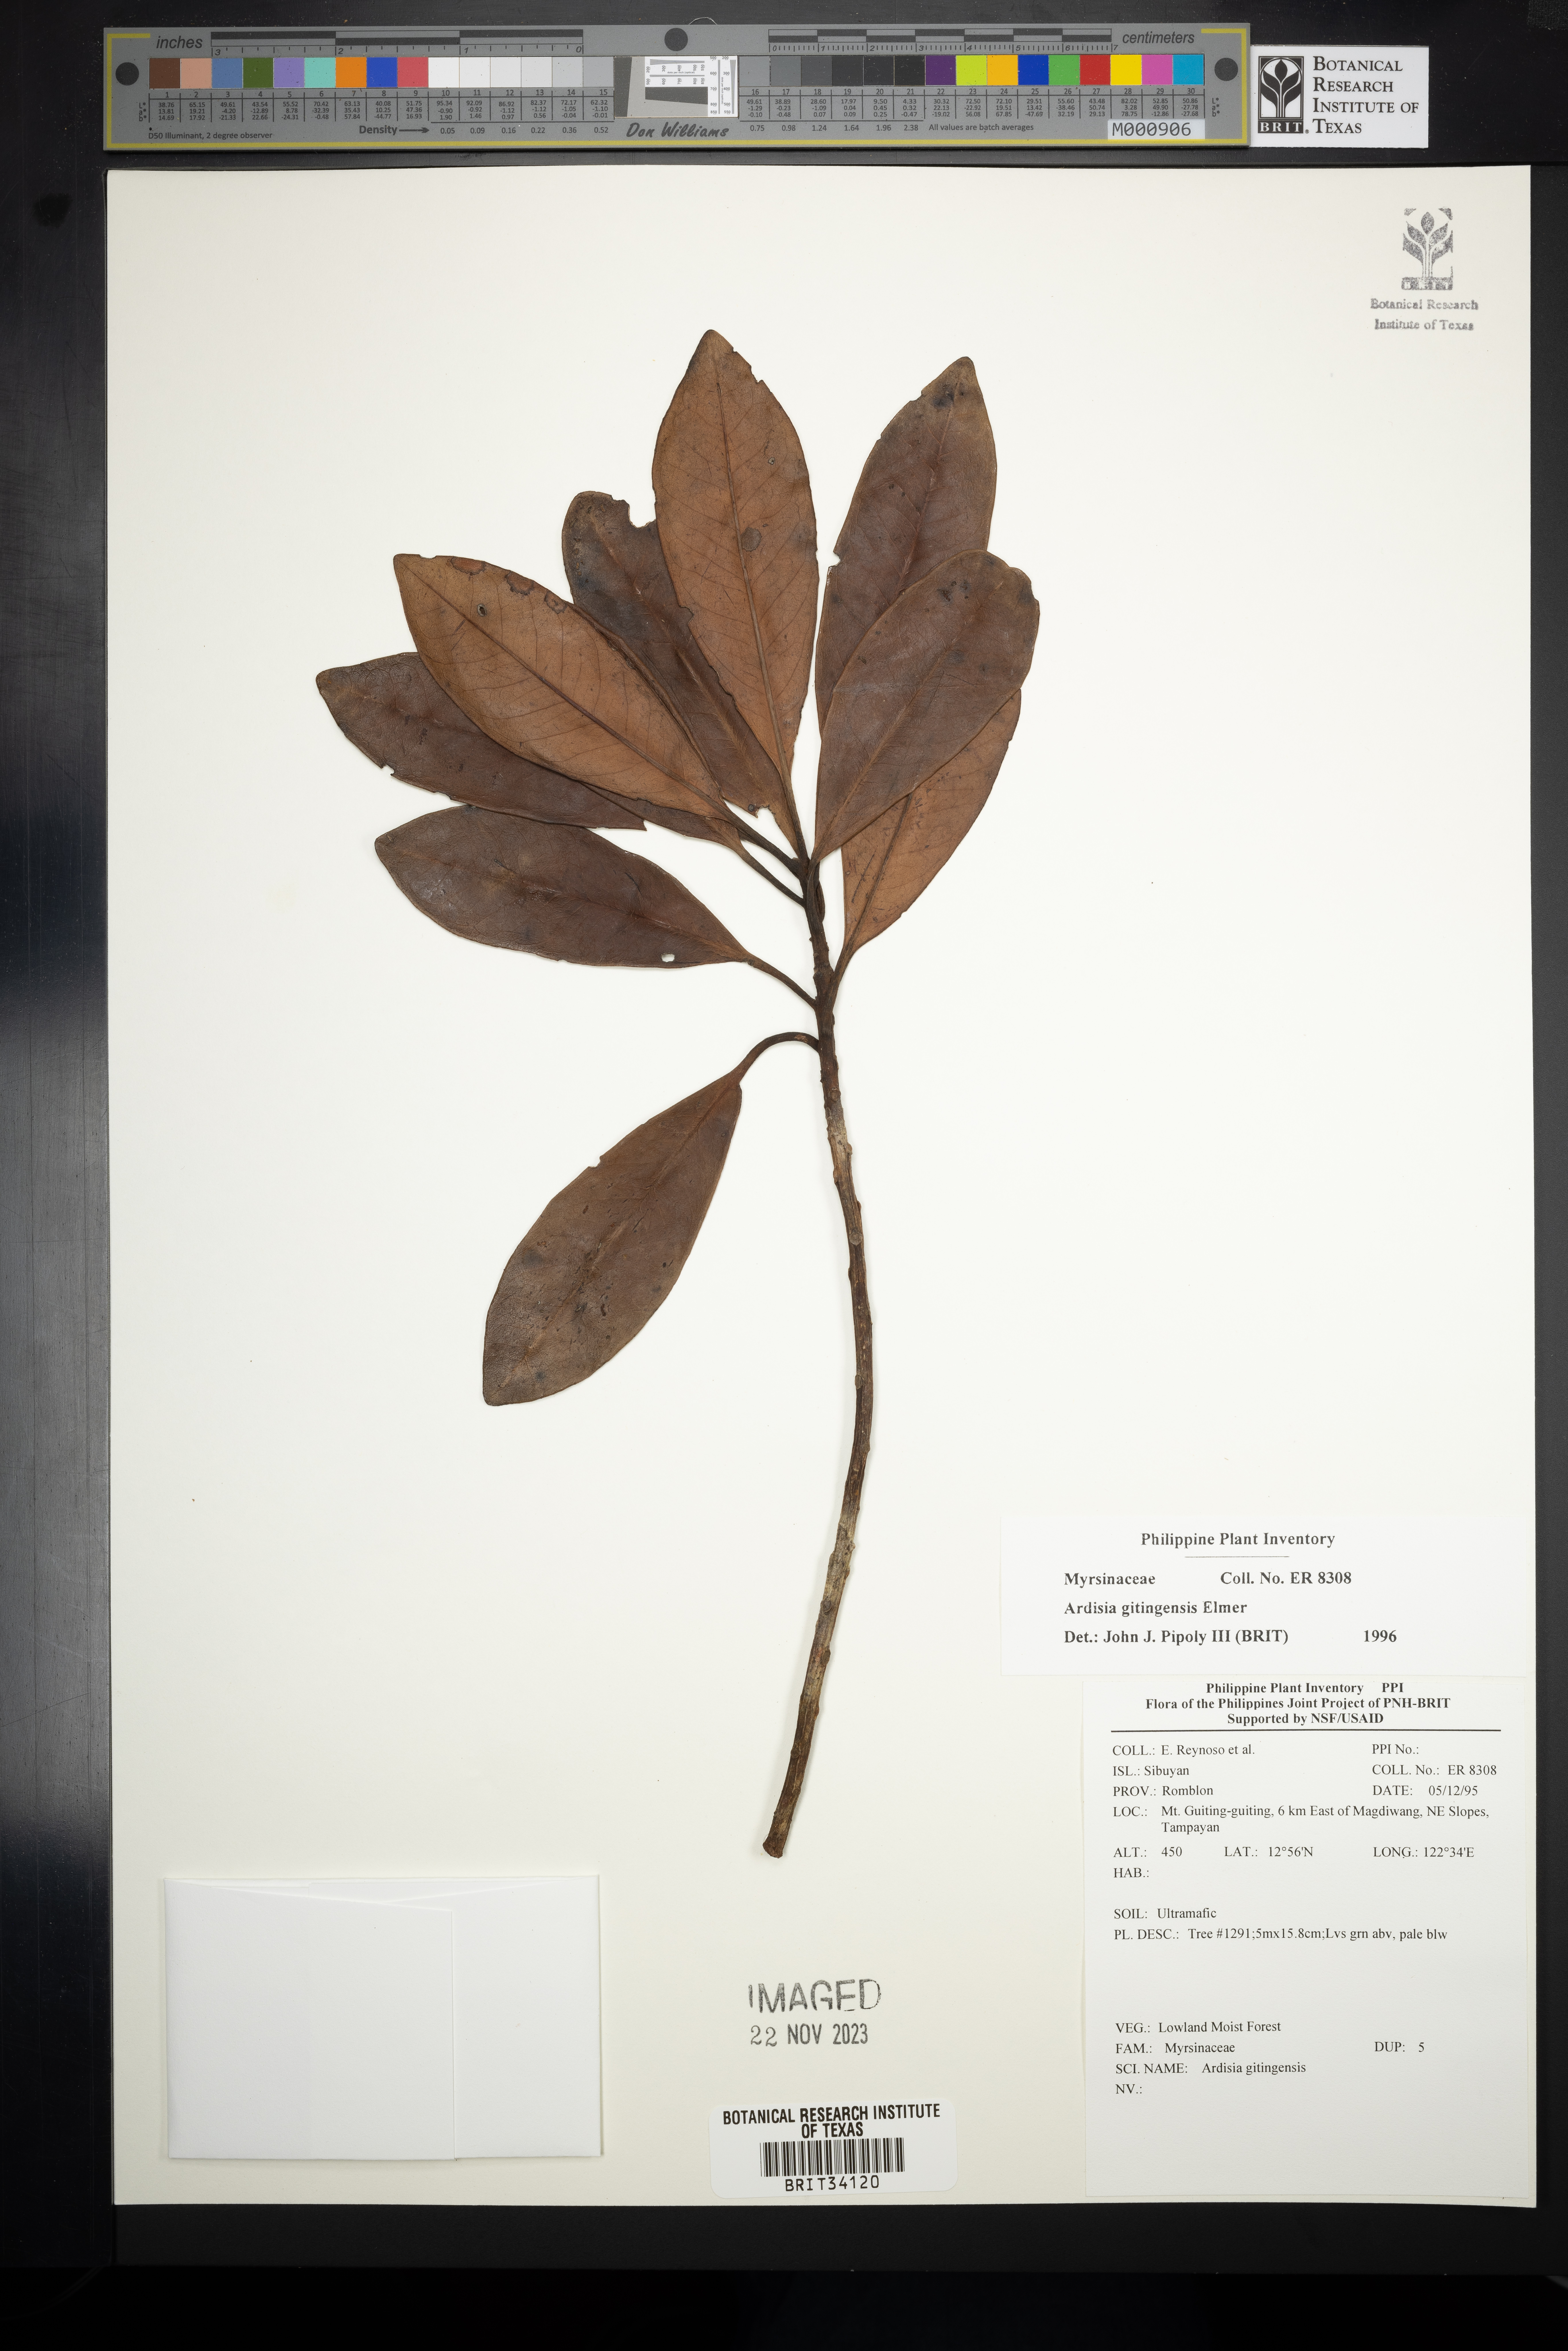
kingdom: Plantae
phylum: Tracheophyta
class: Magnoliopsida
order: Ericales
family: Primulaceae
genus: Ardisia
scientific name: Ardisia darlingii
